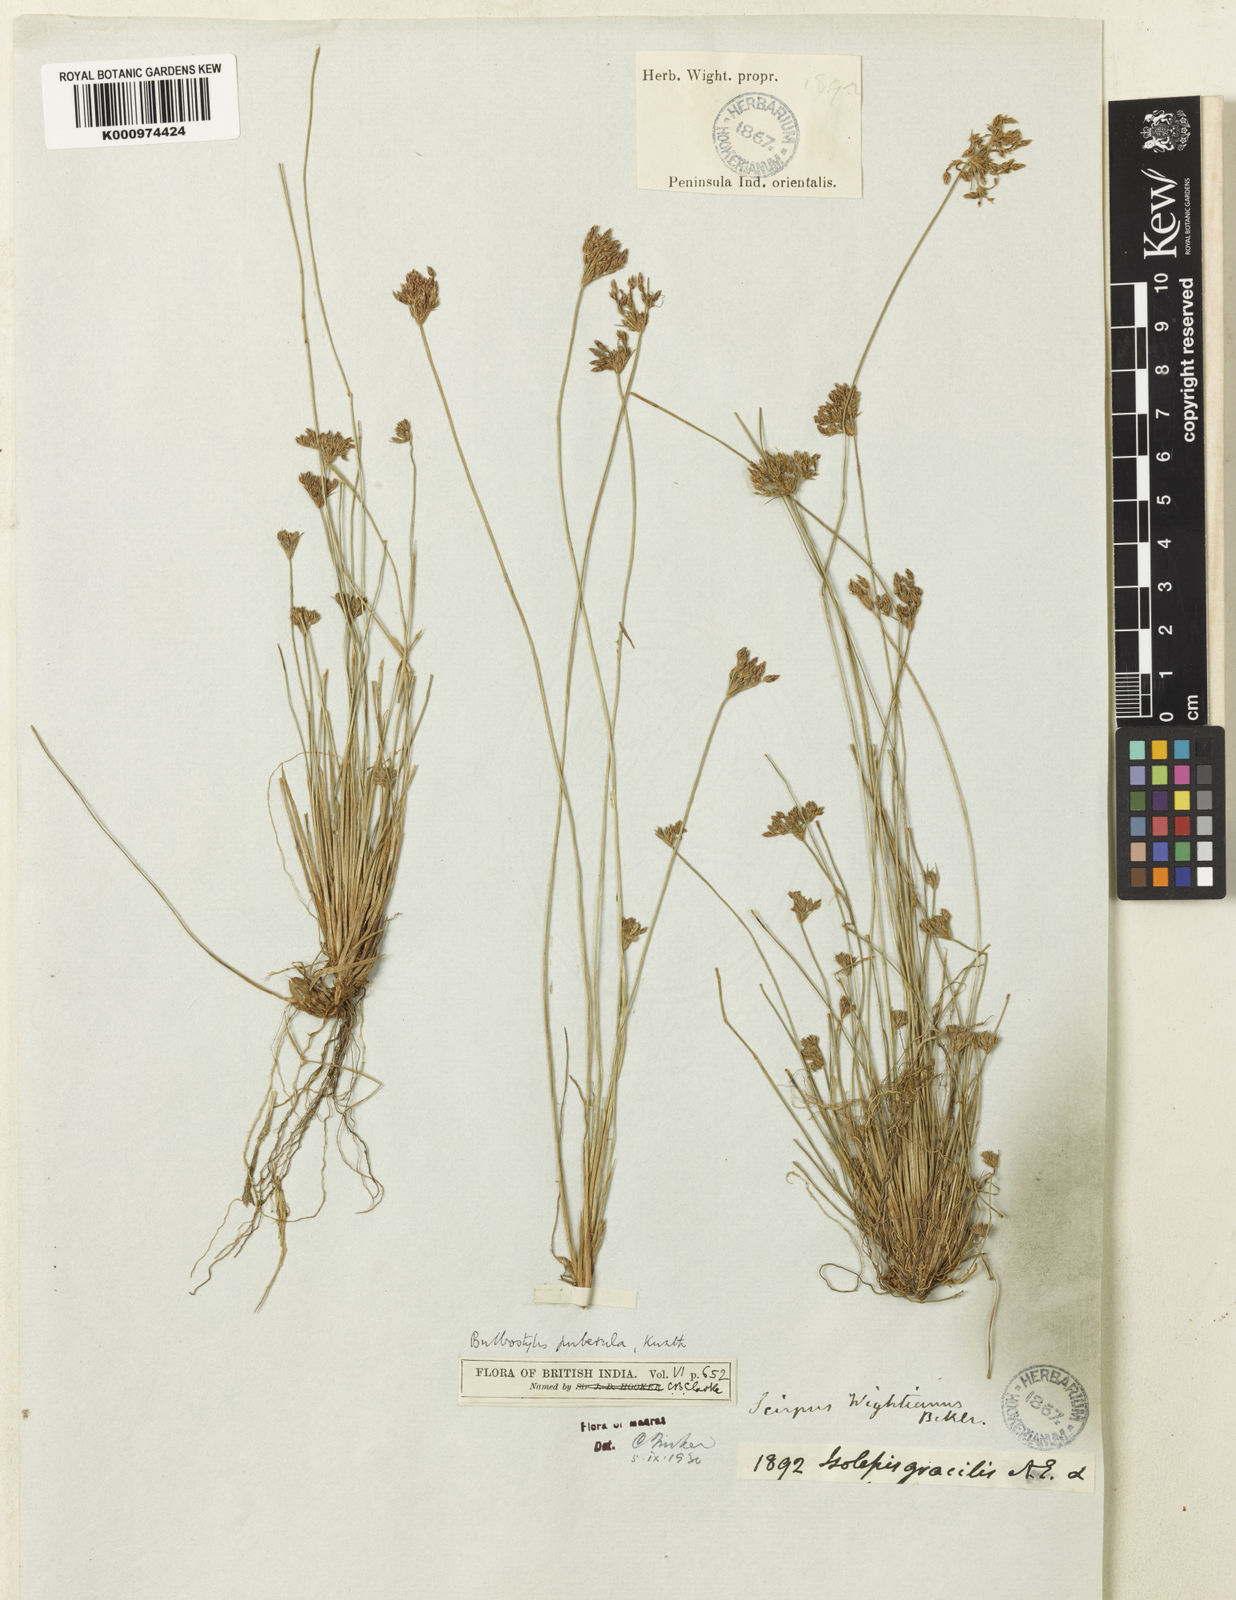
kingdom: Plantae
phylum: Tracheophyta
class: Liliopsida
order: Poales
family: Cyperaceae
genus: Bulbostylis
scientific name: Bulbostylis thouarsii
